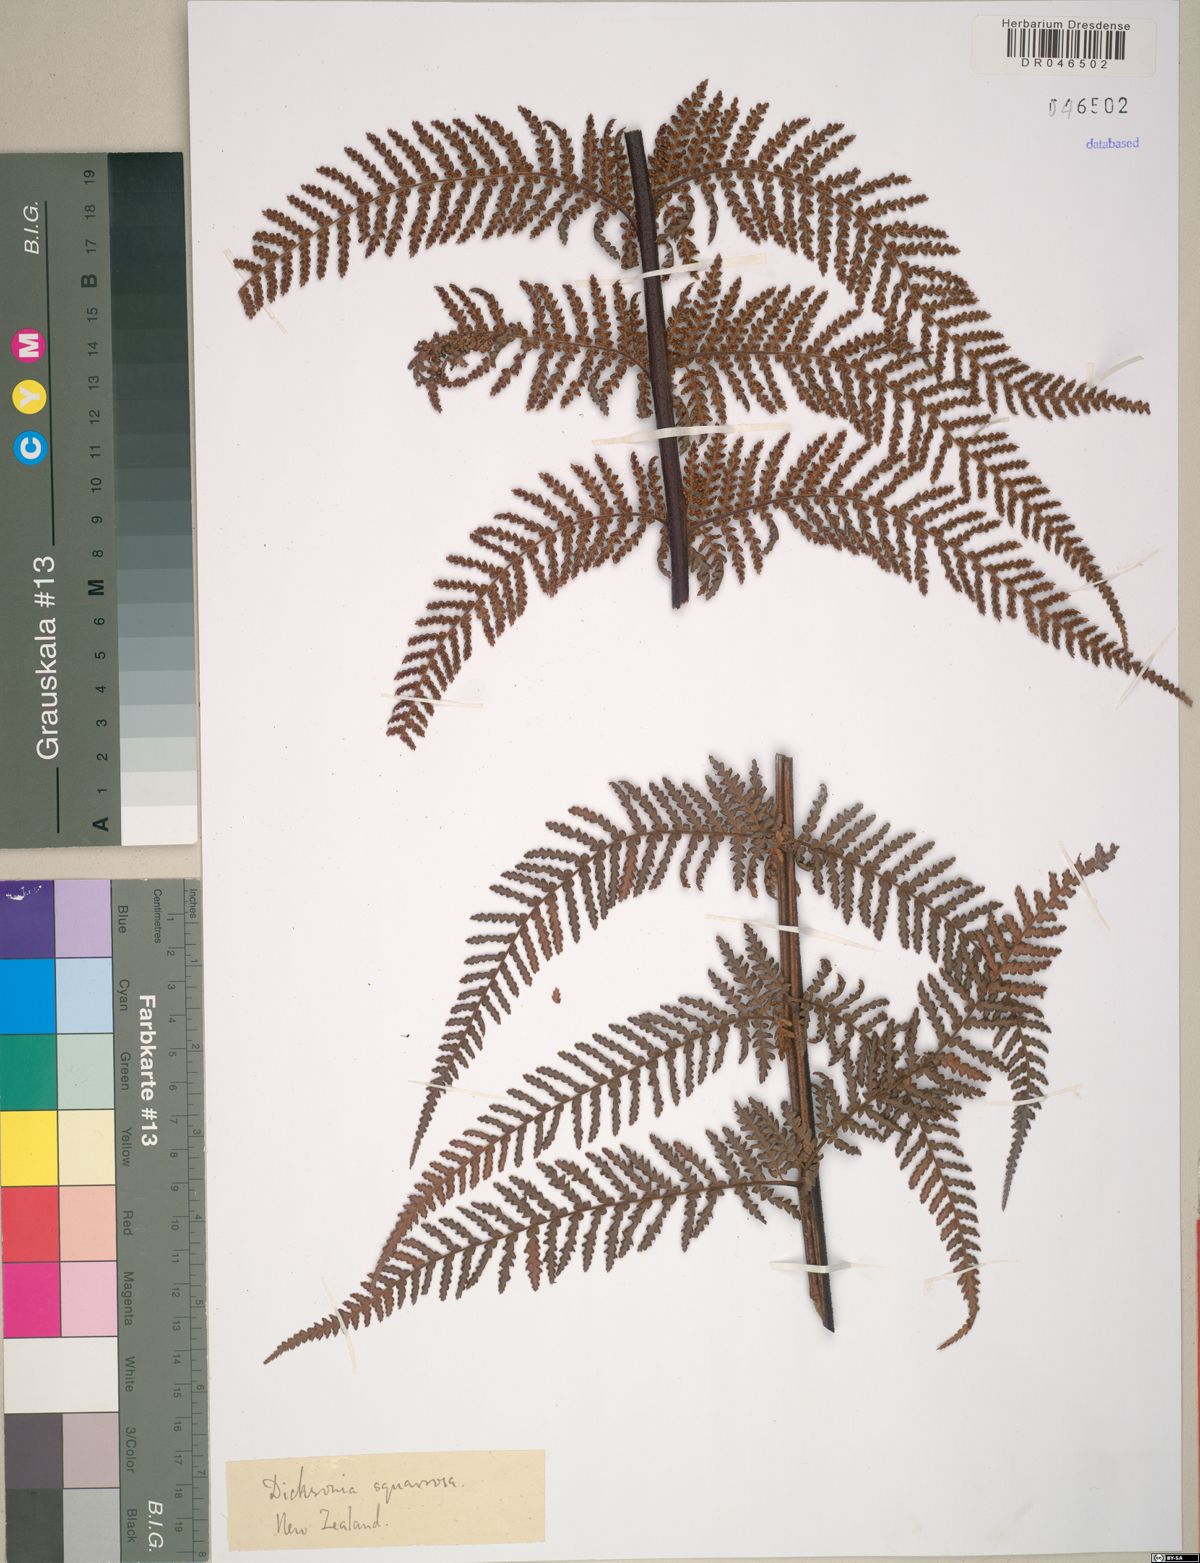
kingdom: Plantae
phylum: Tracheophyta
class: Polypodiopsida
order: Cyatheales
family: Dicksoniaceae
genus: Dicksonia
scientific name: Dicksonia squarrosa
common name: Hard treefern
